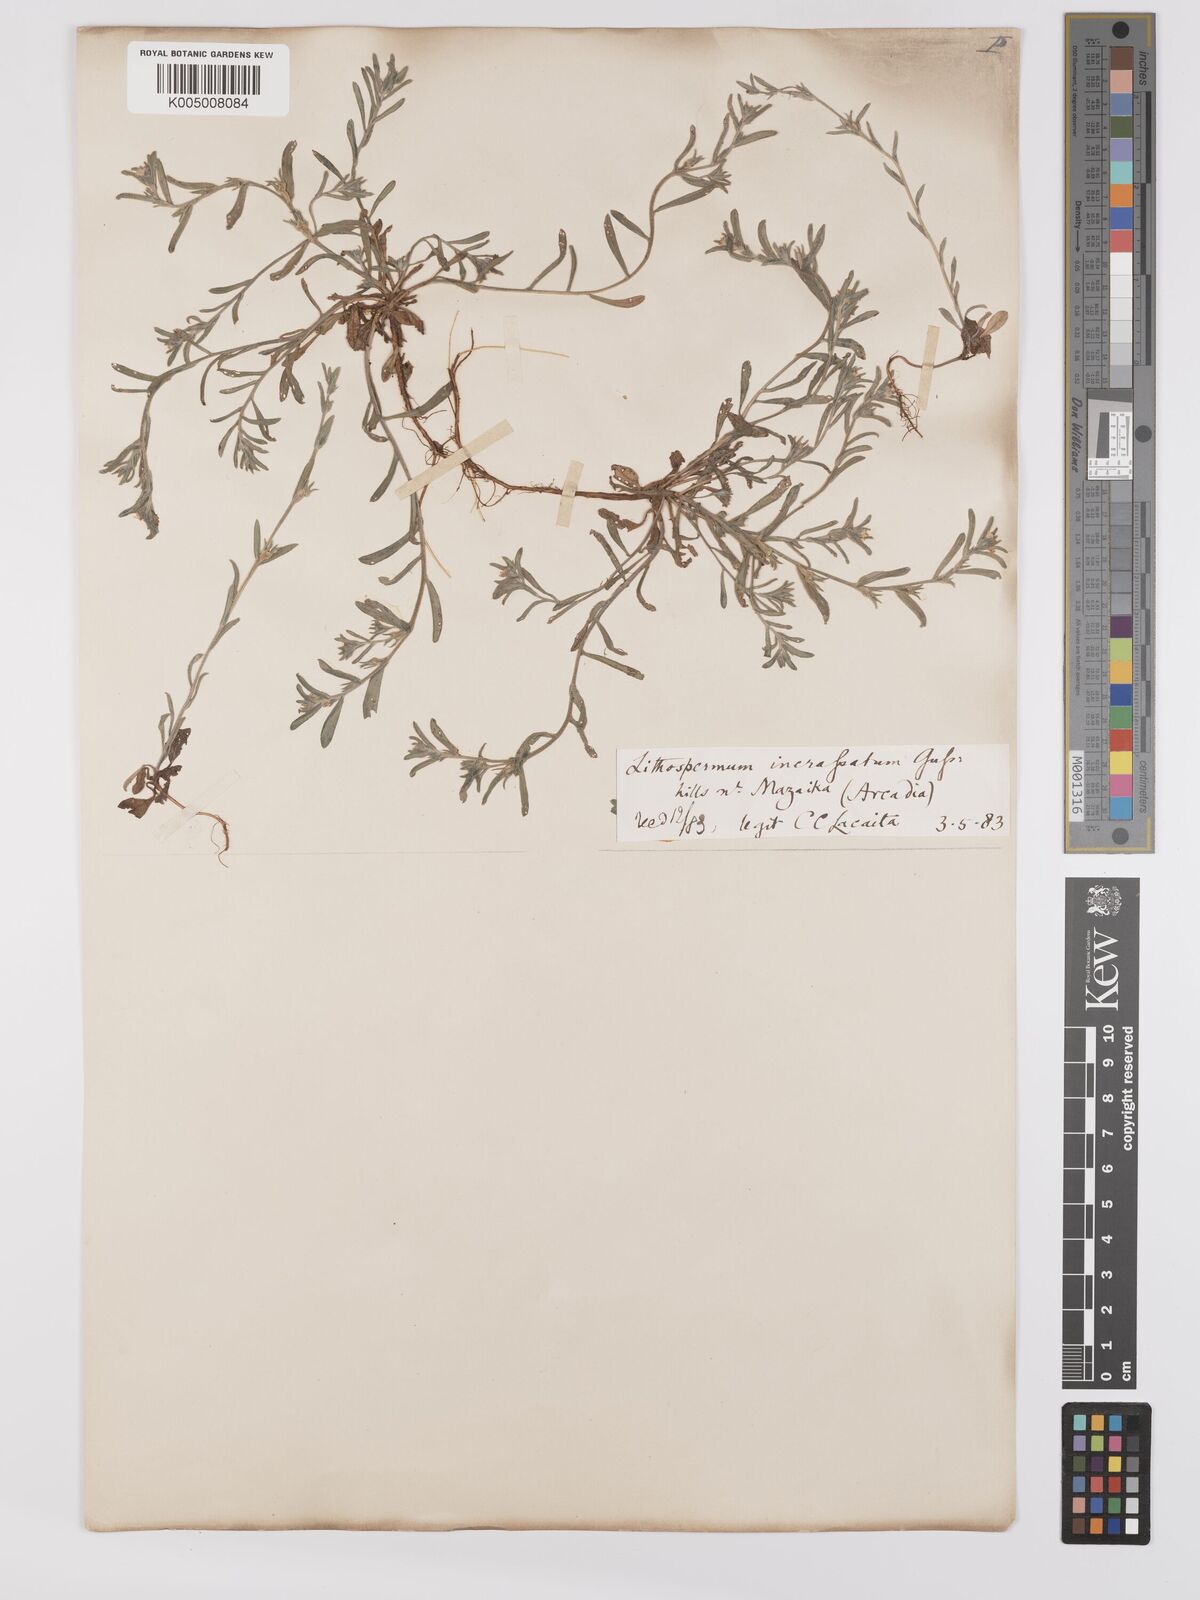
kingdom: Plantae
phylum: Tracheophyta
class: Magnoliopsida
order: Boraginales
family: Boraginaceae
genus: Buglossoides
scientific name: Buglossoides incrassata
